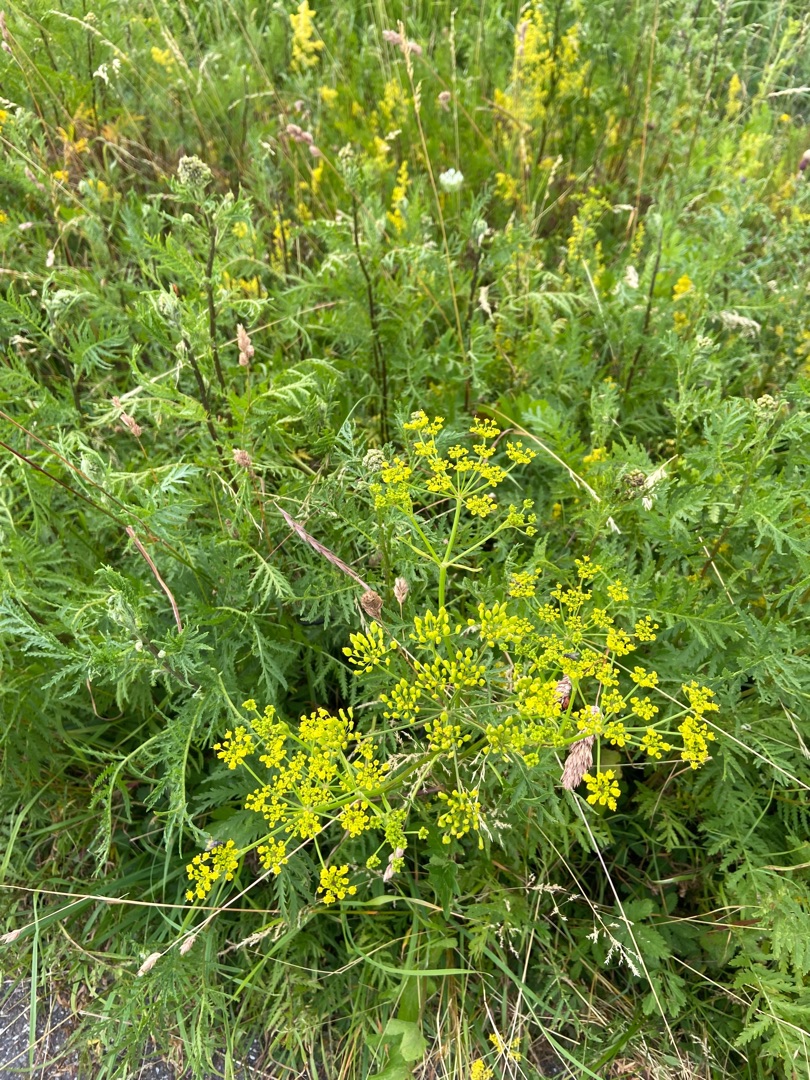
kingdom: Plantae
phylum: Tracheophyta
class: Magnoliopsida
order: Apiales
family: Apiaceae
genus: Pastinaca
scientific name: Pastinaca sativa
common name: Pastinak
